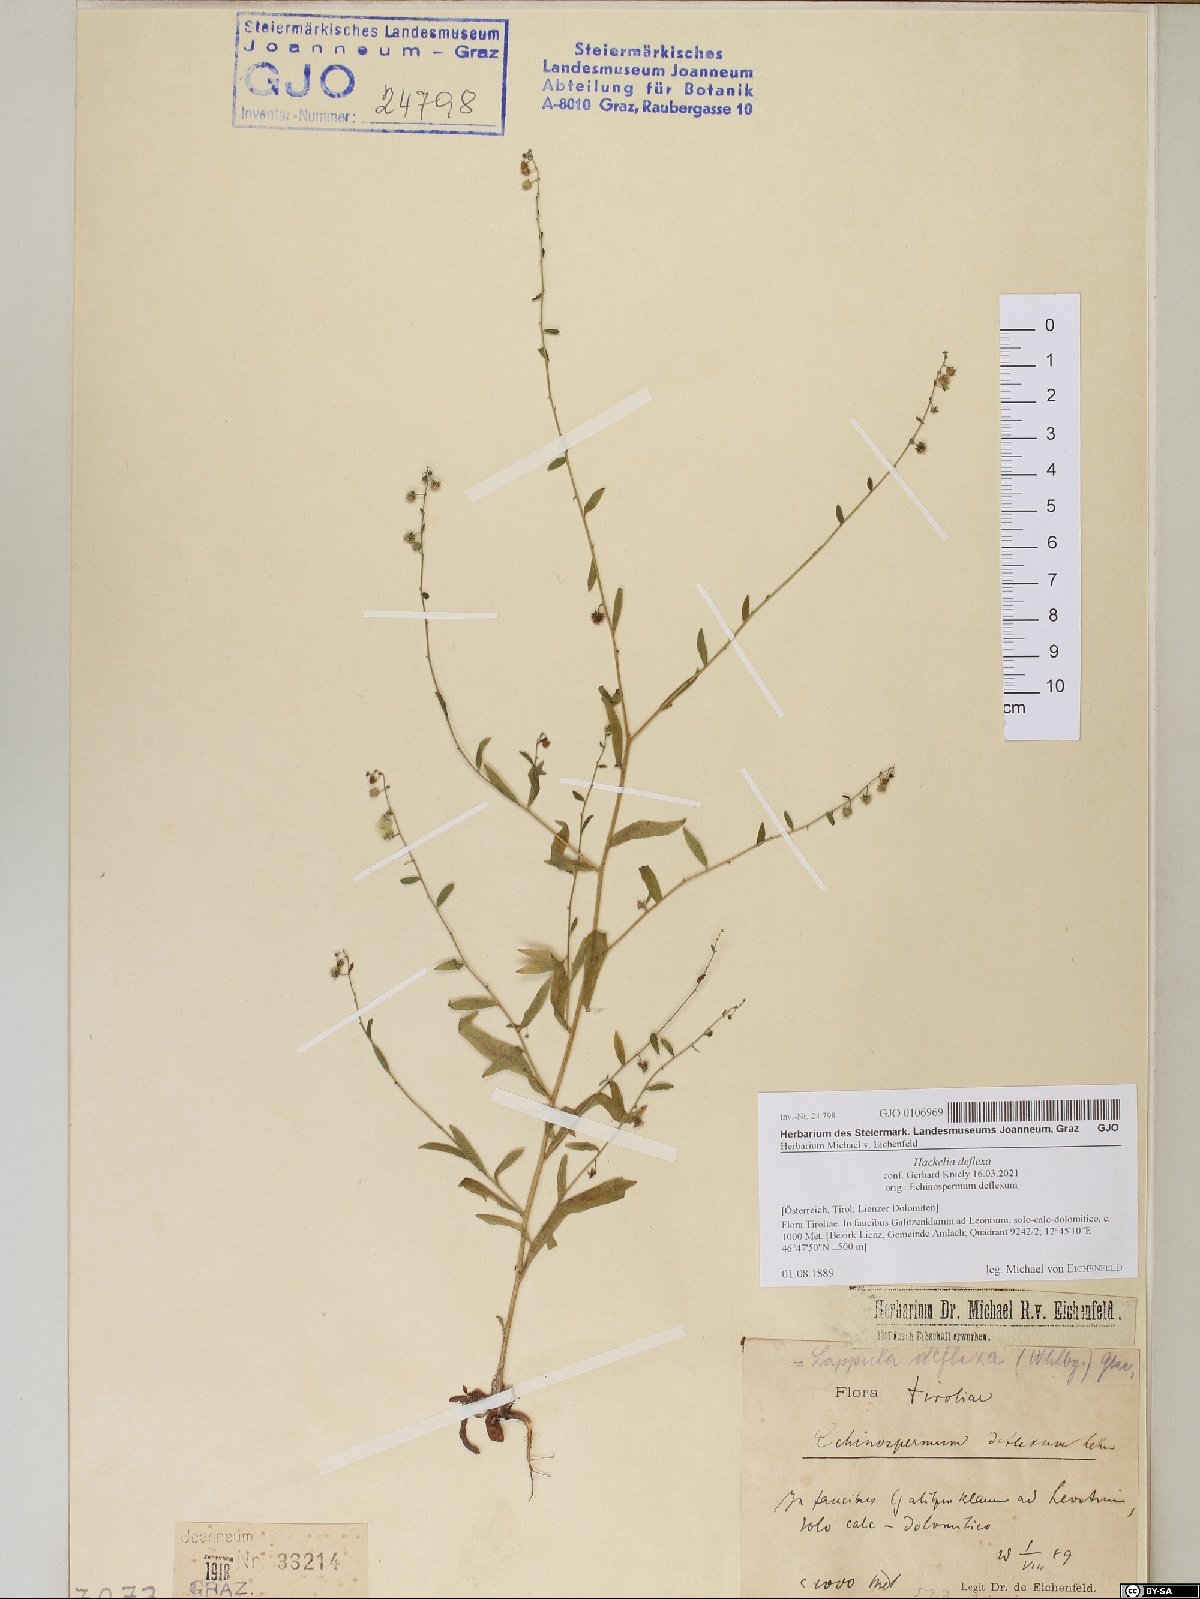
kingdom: Plantae
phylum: Tracheophyta
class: Magnoliopsida
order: Boraginales
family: Boraginaceae
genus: Hackelia
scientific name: Hackelia deflexa
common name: Nodding stickseed
